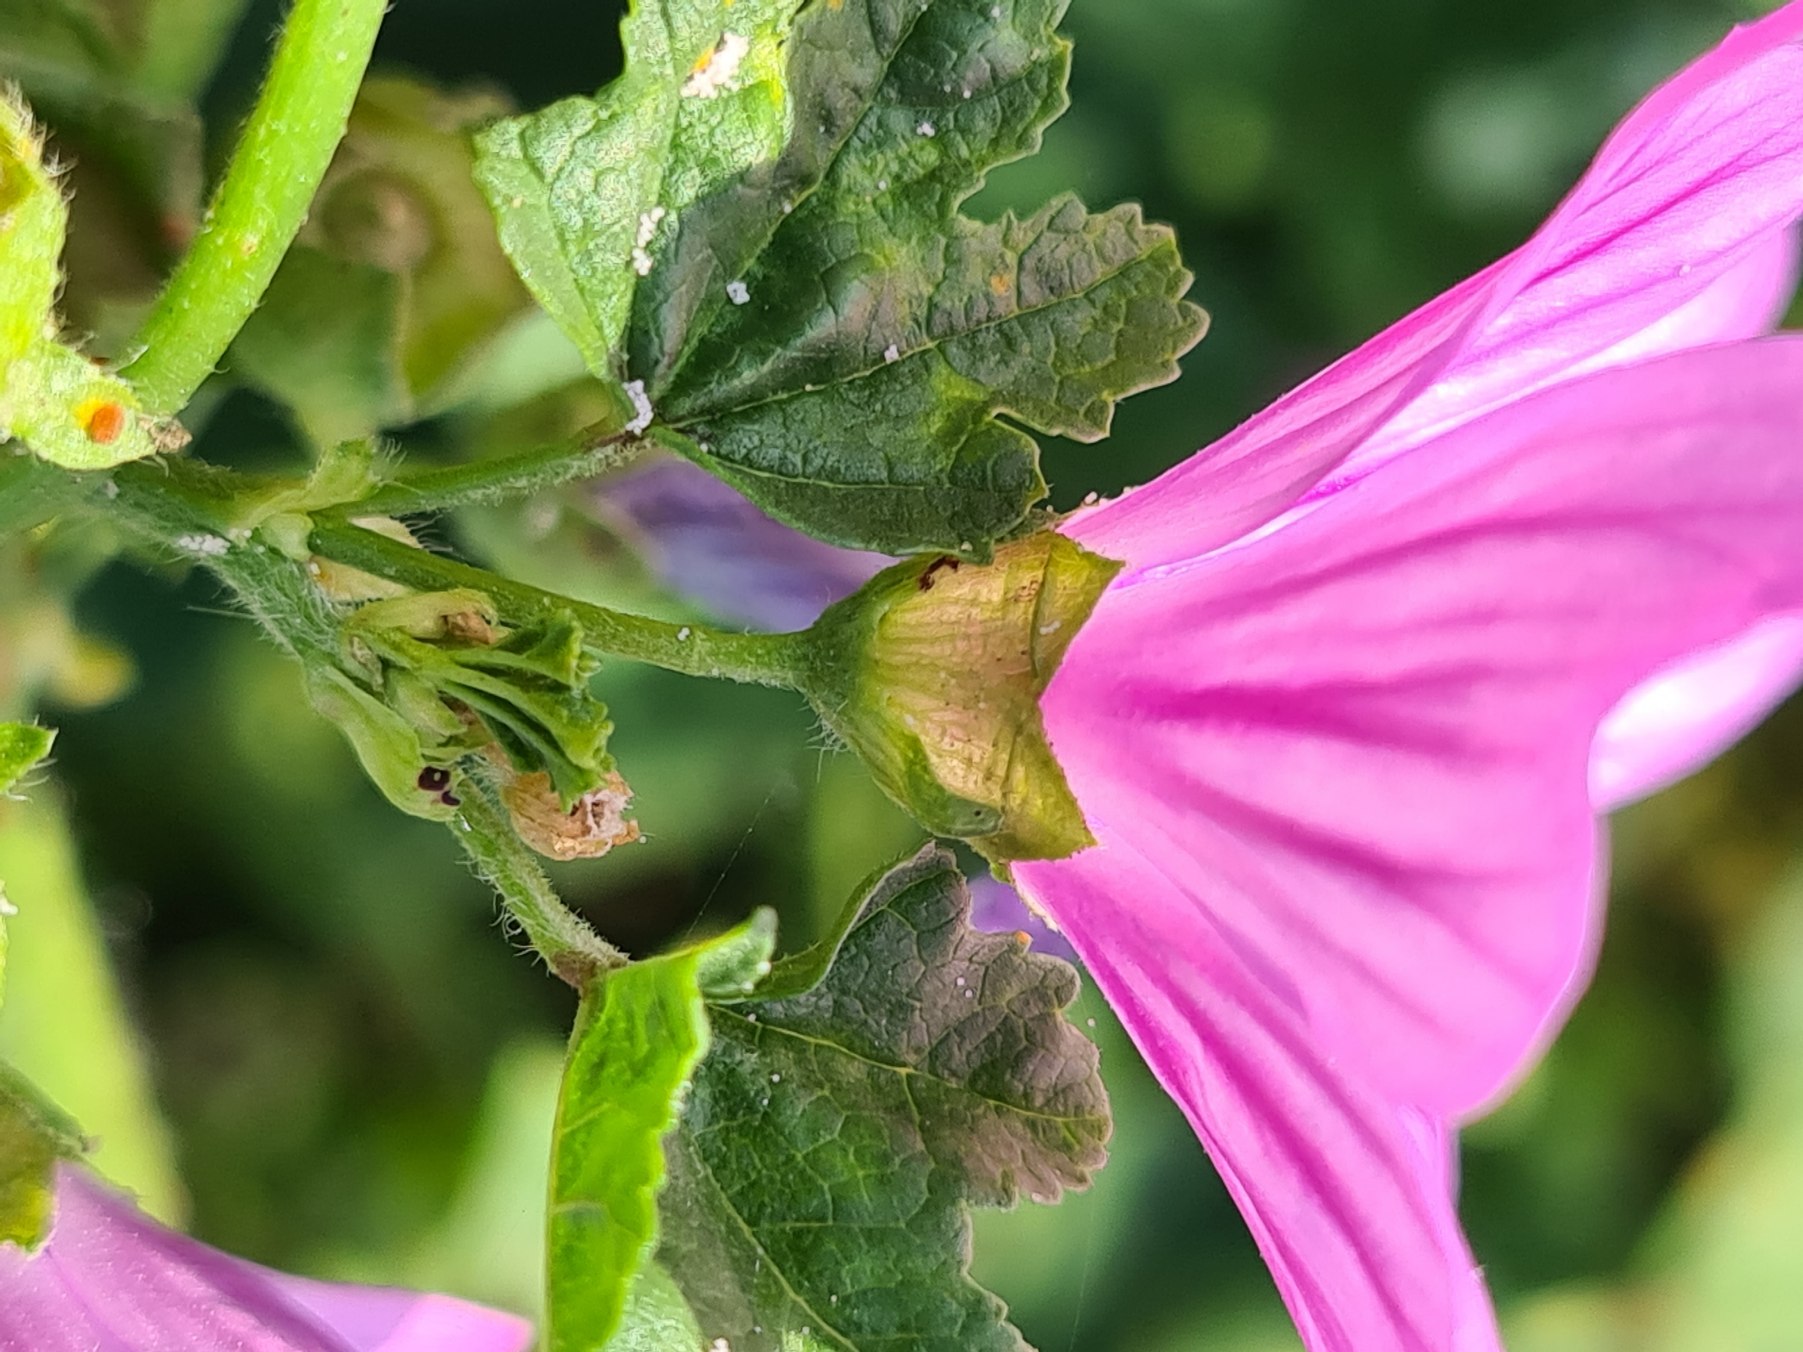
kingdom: Plantae
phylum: Tracheophyta
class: Magnoliopsida
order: Malvales
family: Malvaceae
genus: Malva
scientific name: Malva sylvestris
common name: Almindelig katost
